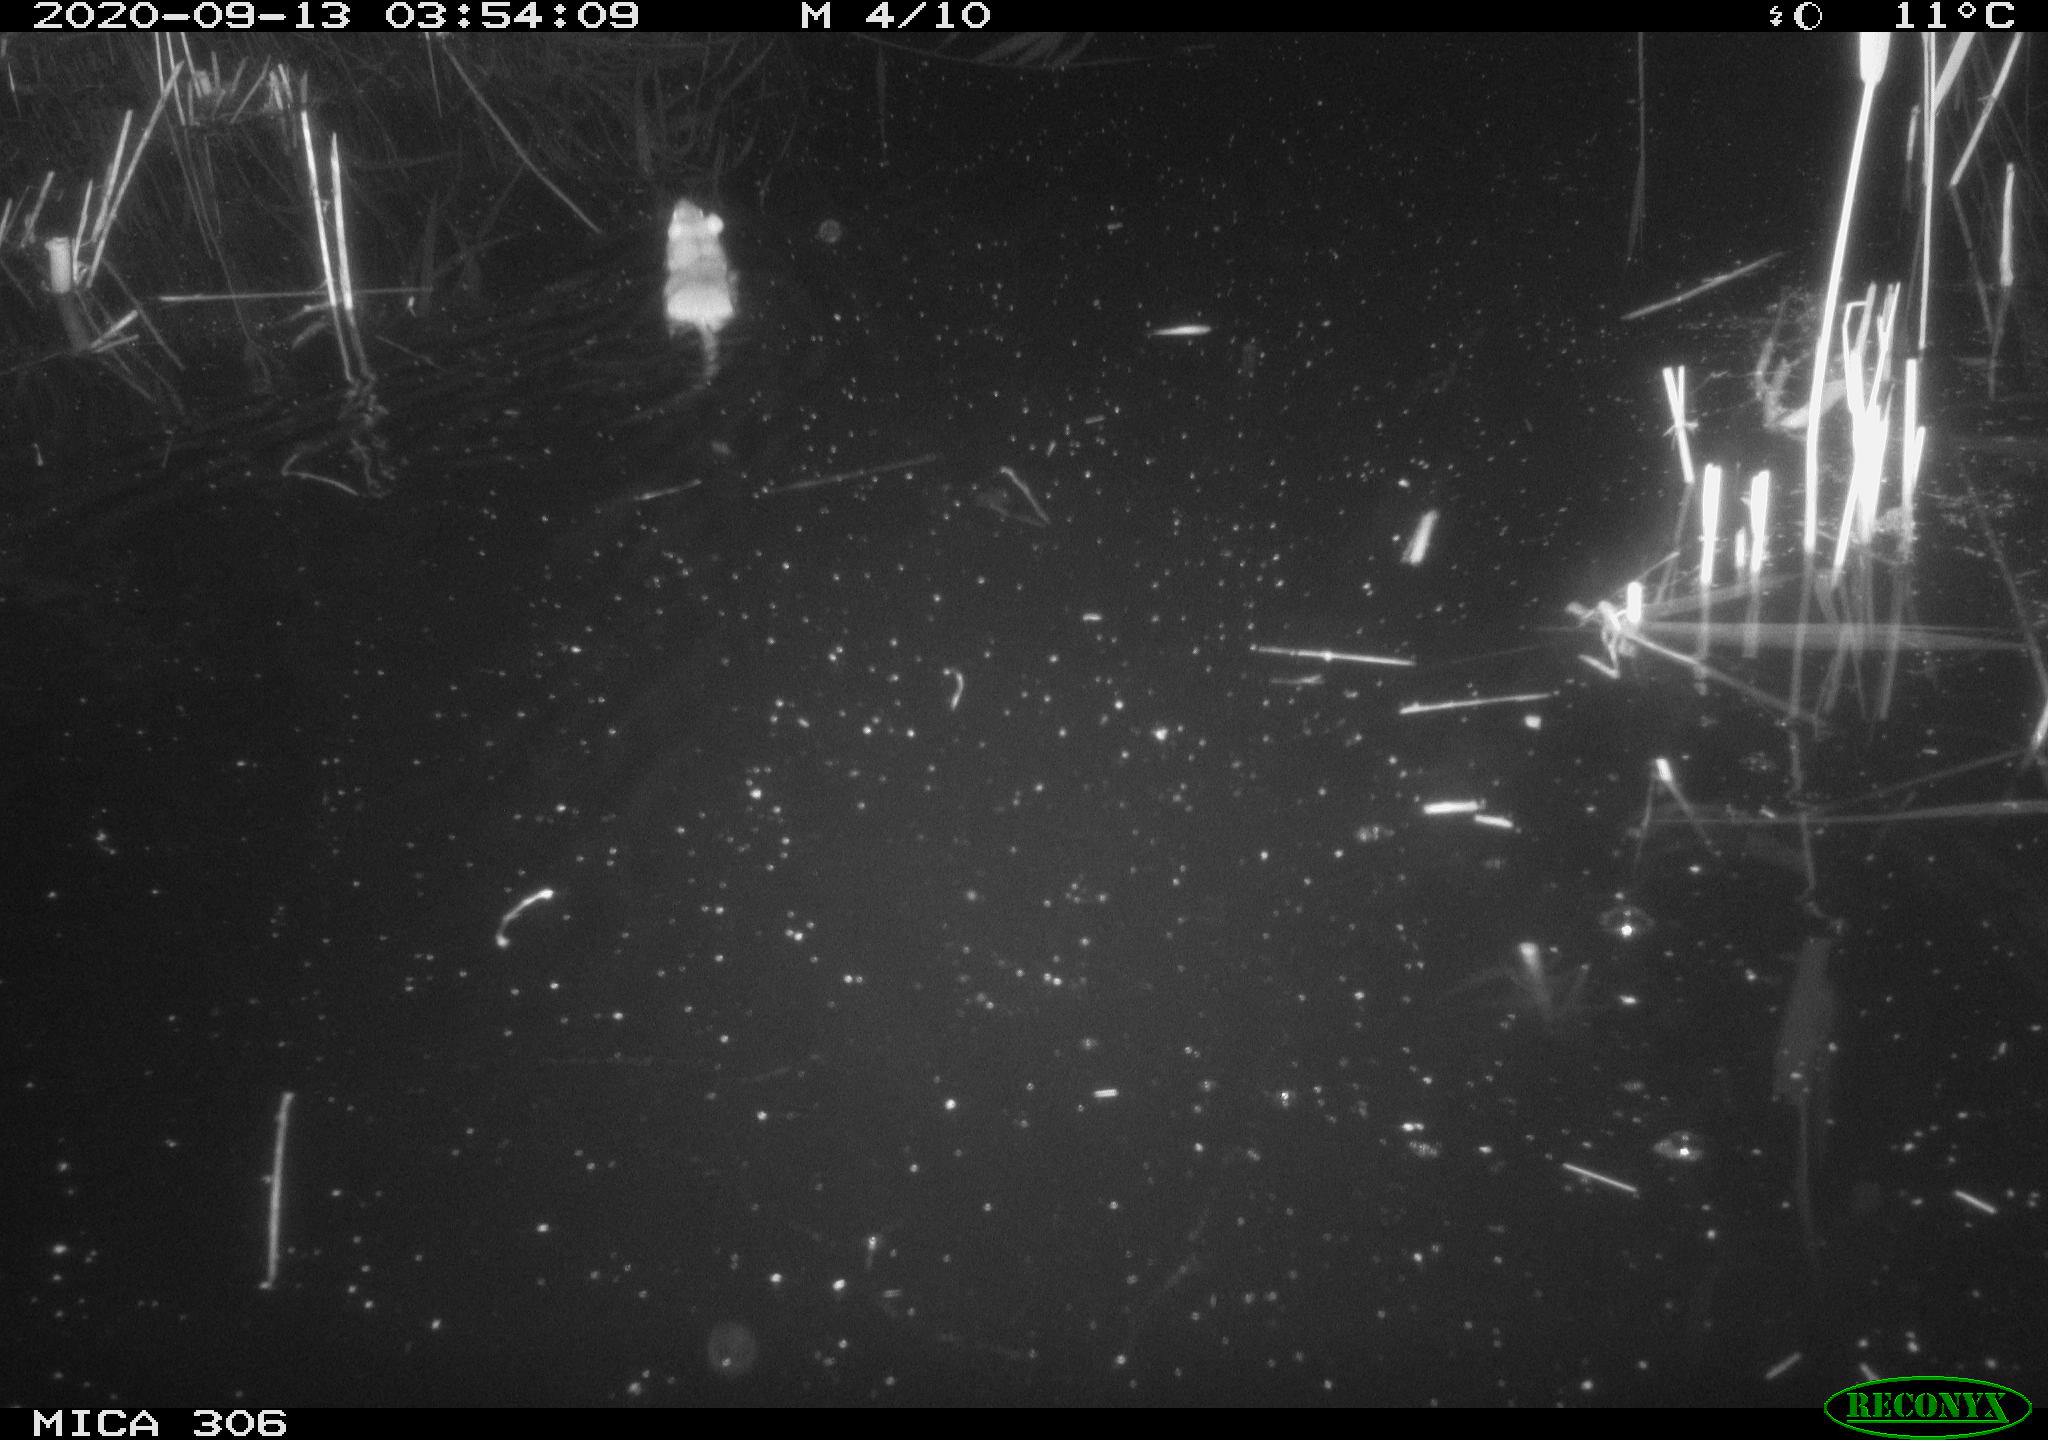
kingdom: Animalia
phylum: Chordata
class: Mammalia
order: Rodentia
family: Muridae
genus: Rattus
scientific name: Rattus norvegicus
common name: Brown rat
